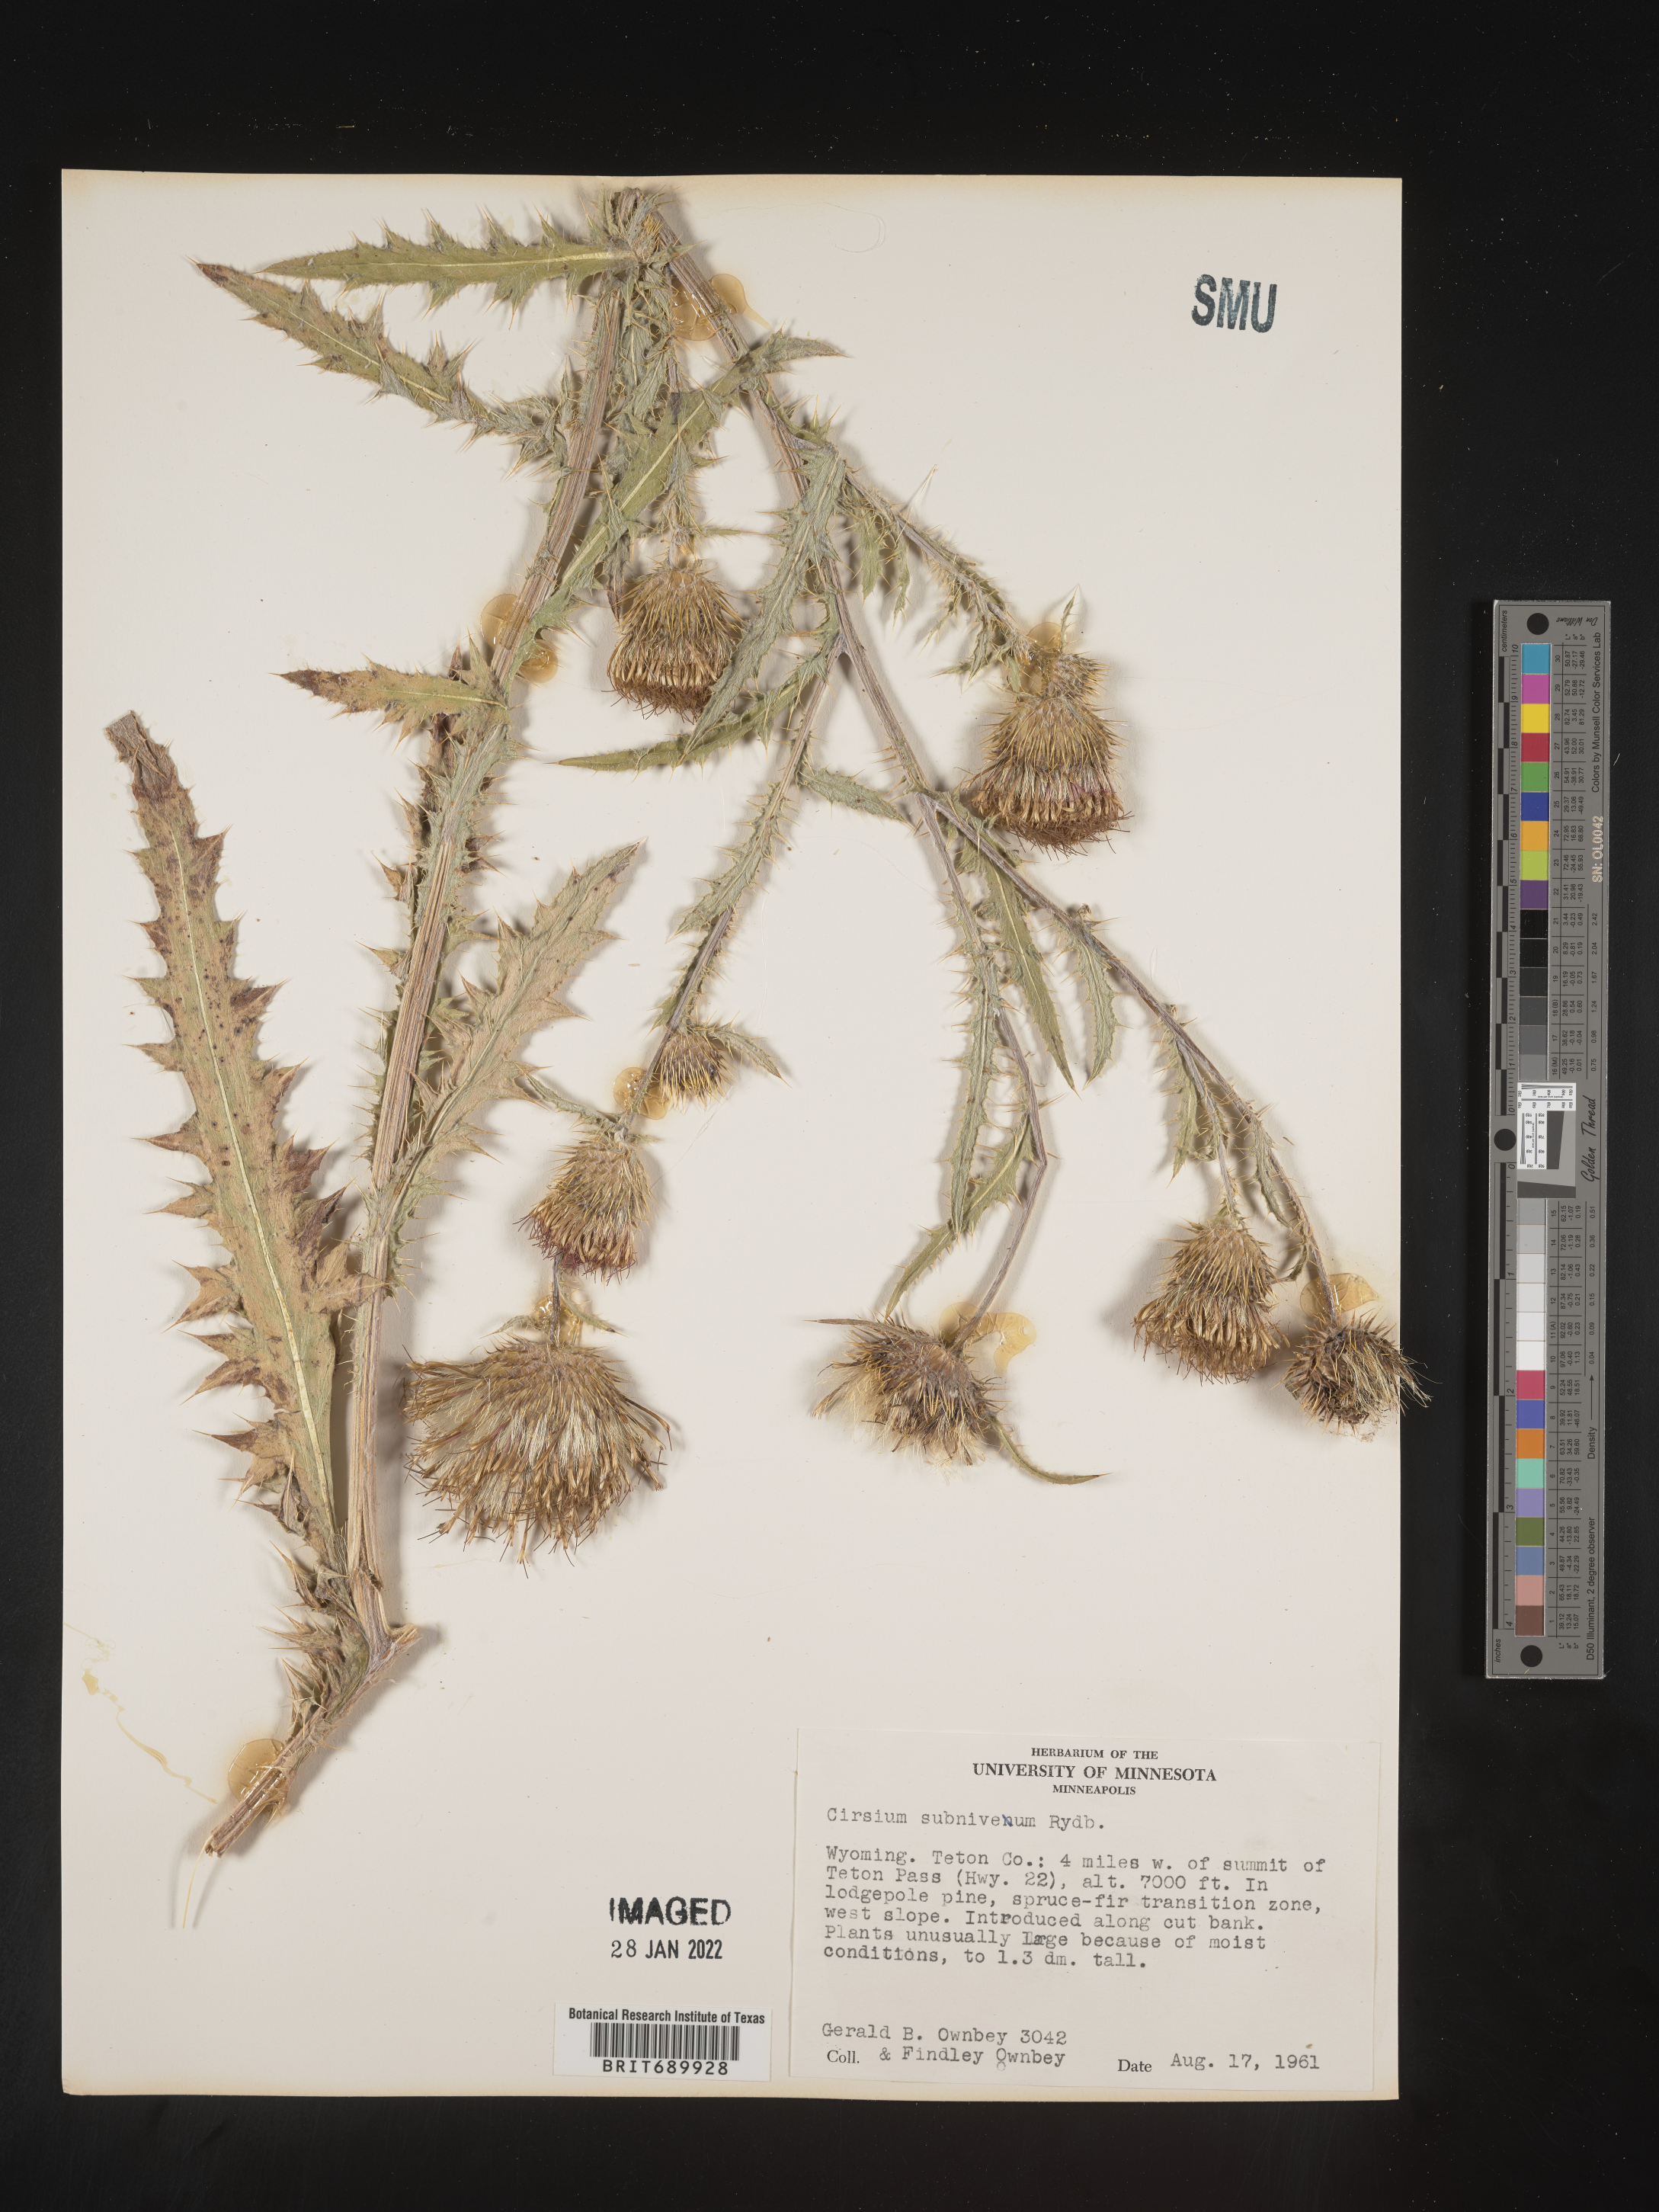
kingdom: Plantae
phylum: Tracheophyta
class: Magnoliopsida
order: Asterales
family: Asteraceae
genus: Cirsium
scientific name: Cirsium inamoenum
